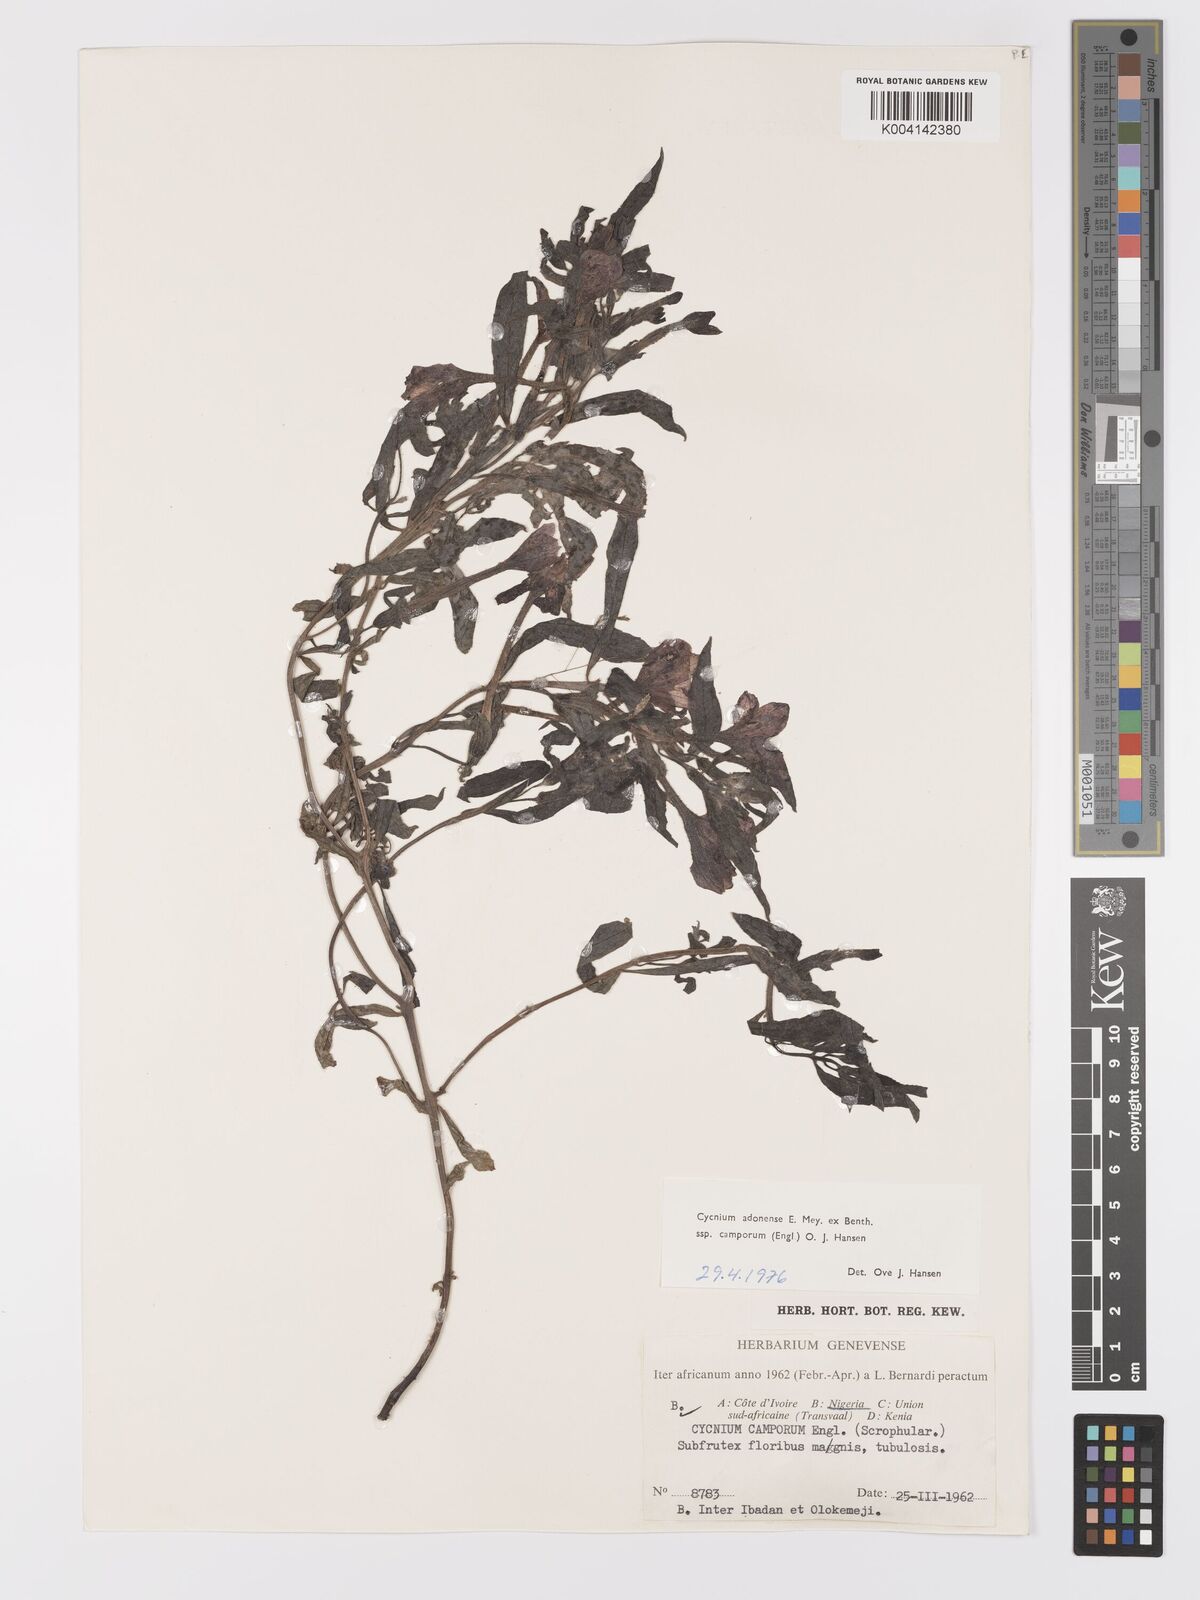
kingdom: Plantae
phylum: Tracheophyta
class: Magnoliopsida
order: Lamiales
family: Orobanchaceae
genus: Cycnium
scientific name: Cycnium adoense
